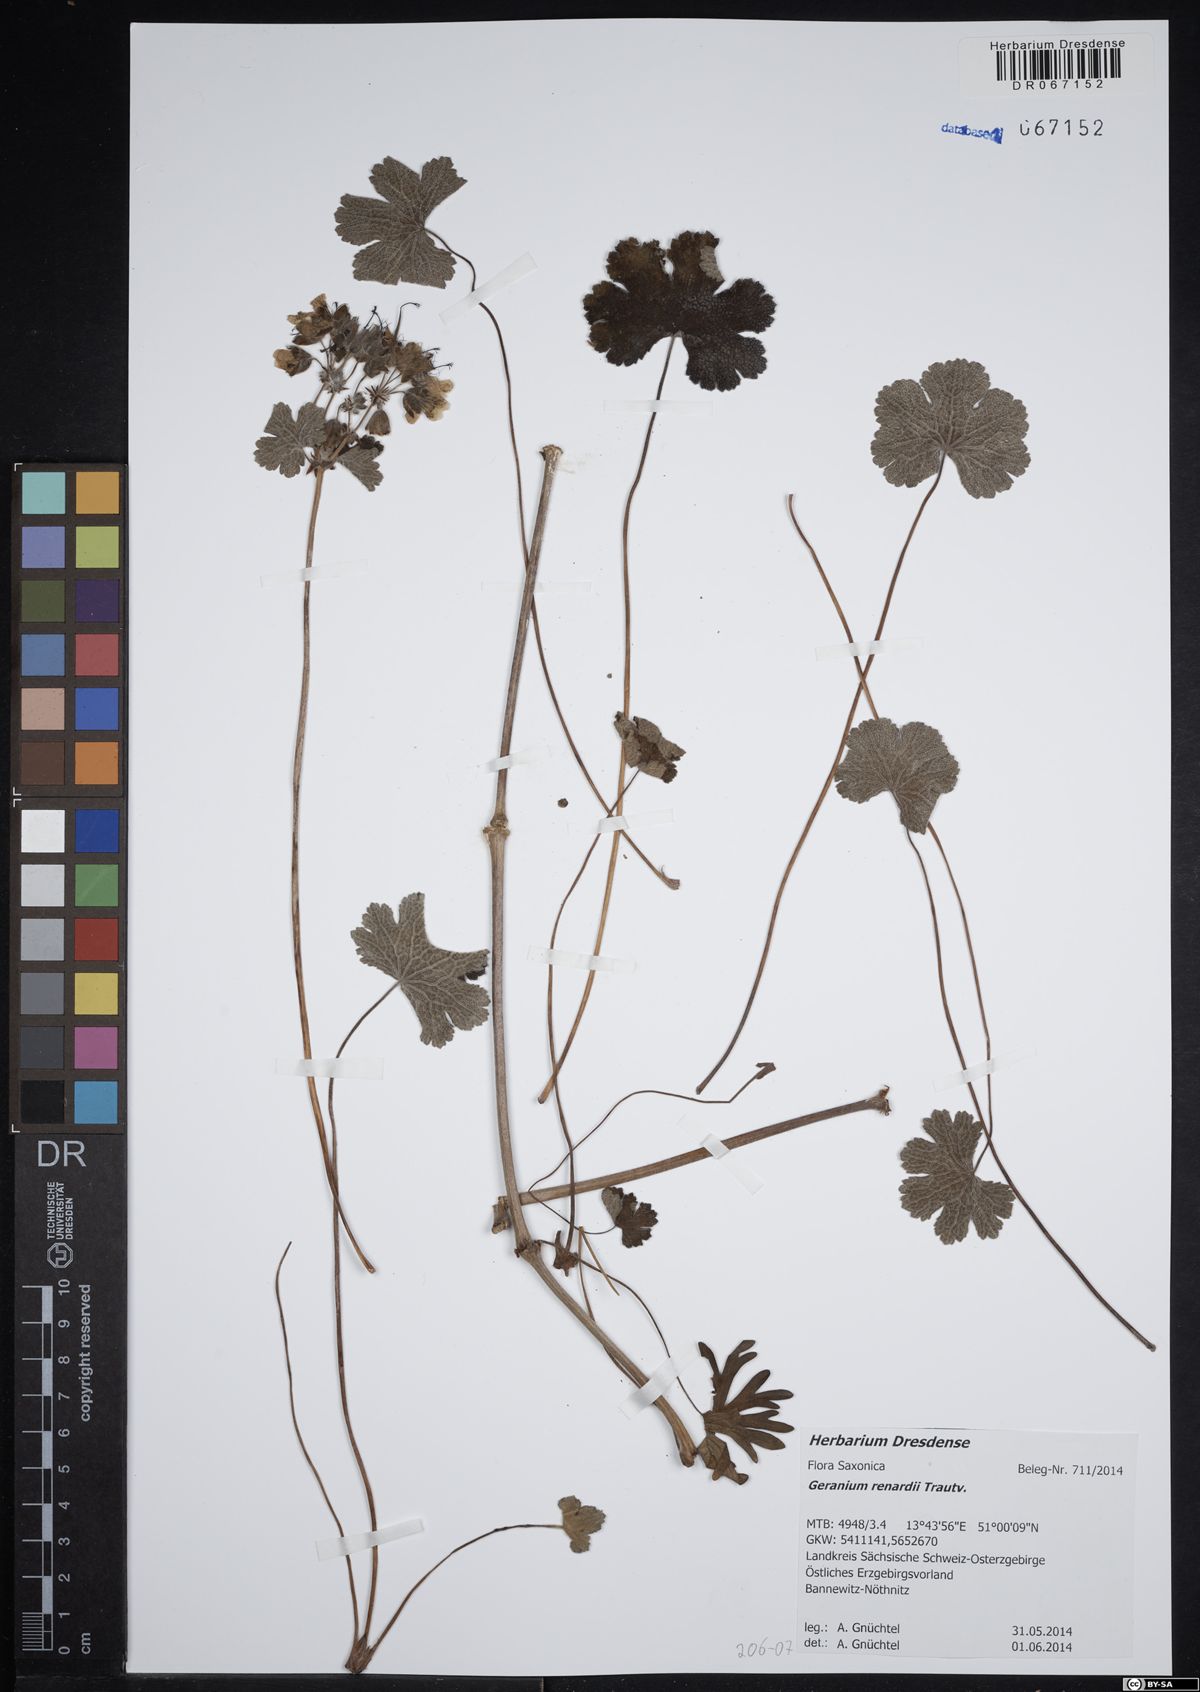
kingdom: Plantae
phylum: Tracheophyta
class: Magnoliopsida
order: Geraniales
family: Geraniaceae
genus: Geranium
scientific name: Geranium renardii
